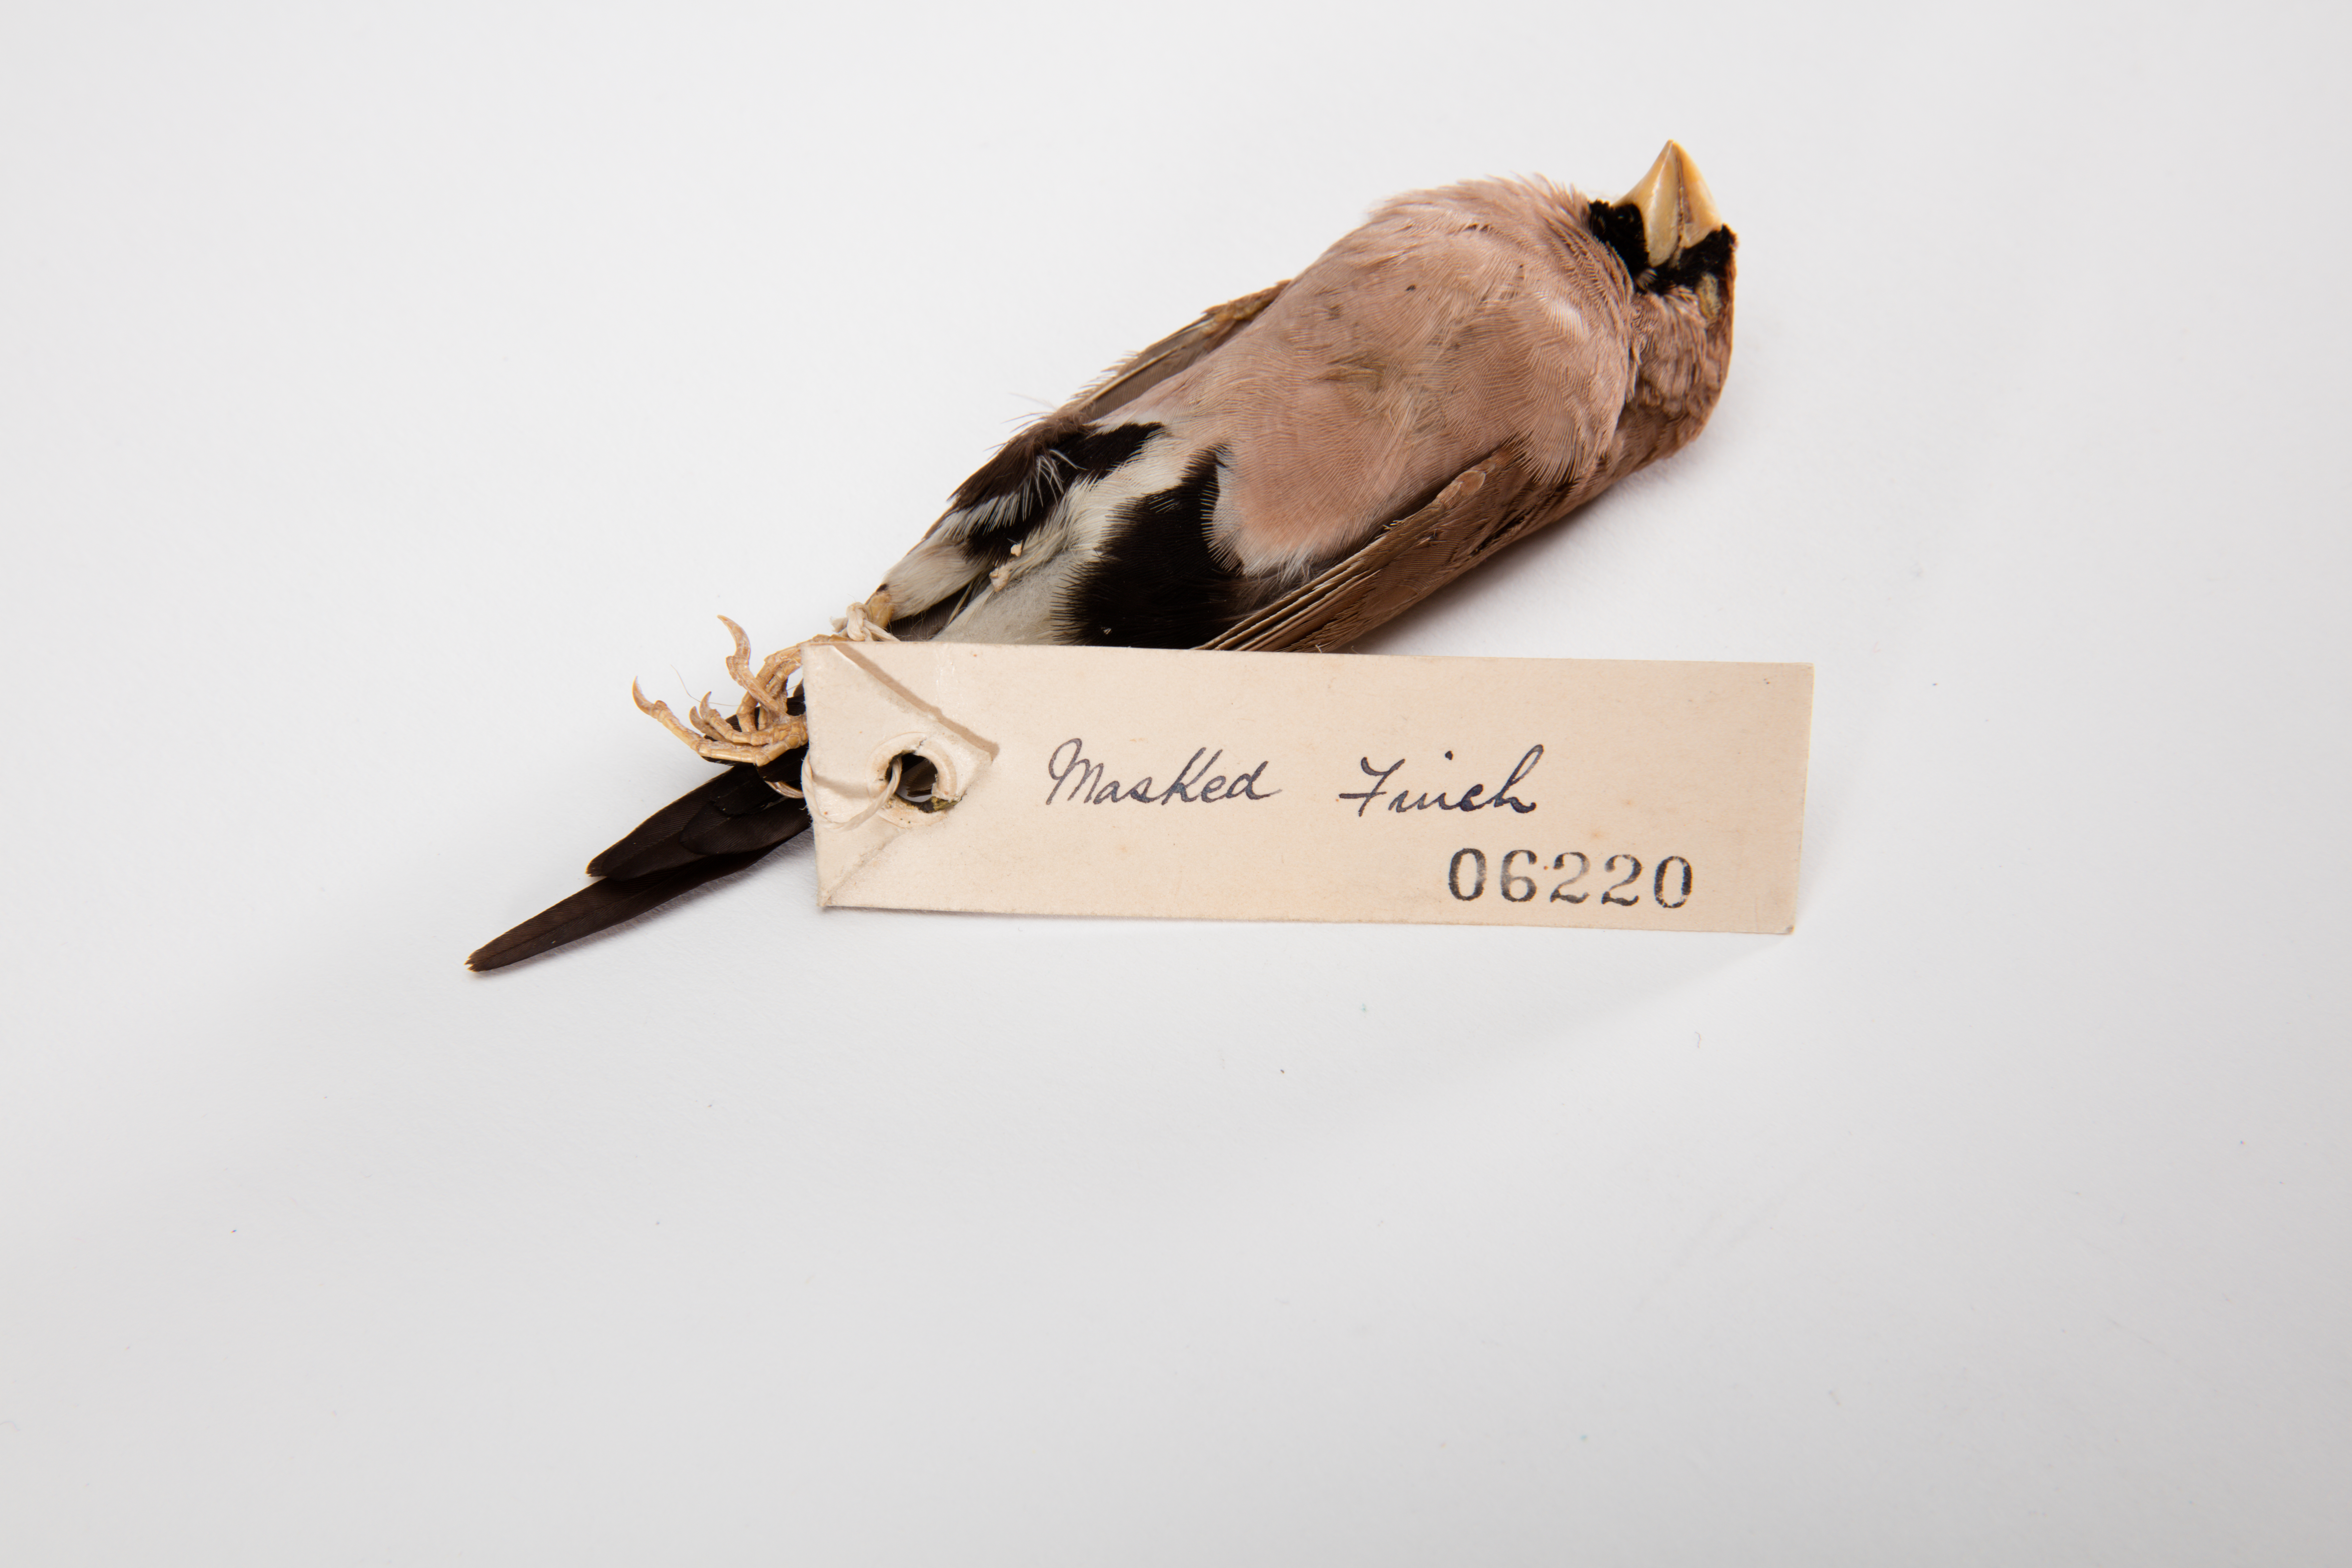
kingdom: Animalia
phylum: Chordata
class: Aves
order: Passeriformes
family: Estrildidae
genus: Poephila
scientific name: Poephila personata
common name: Masked finch
